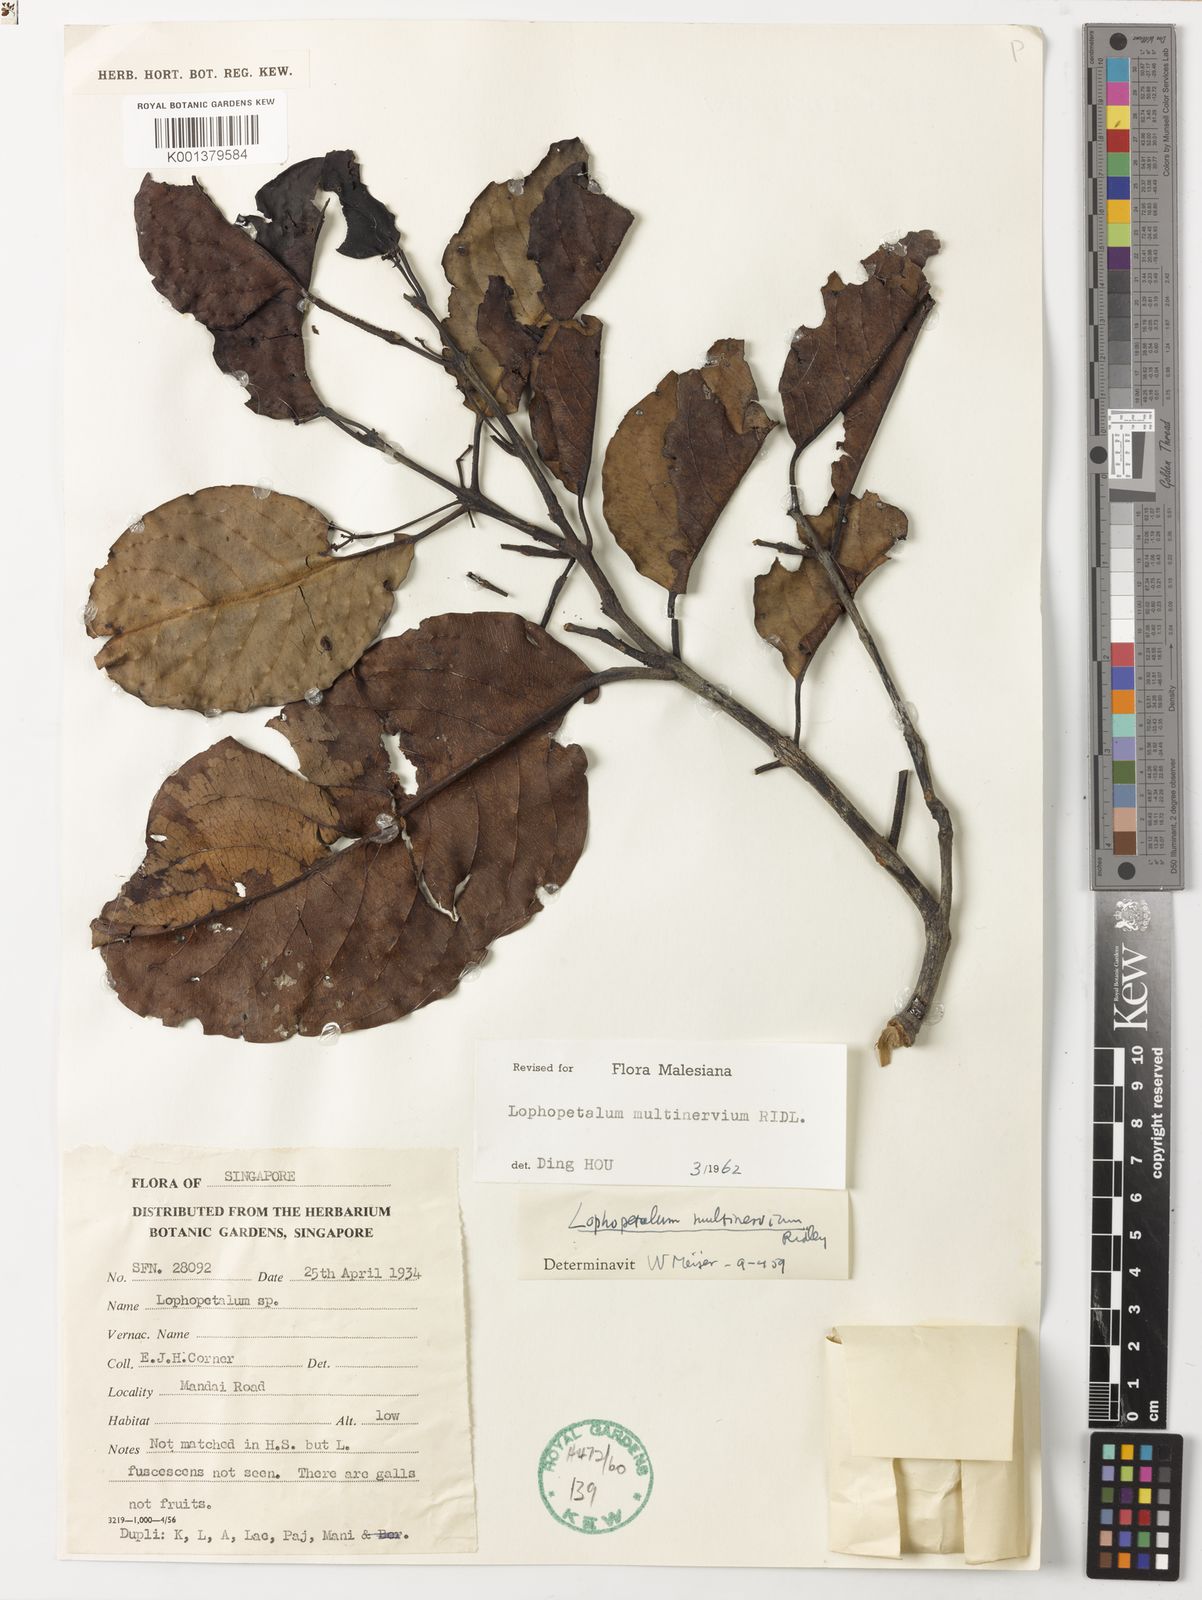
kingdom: Plantae
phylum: Tracheophyta
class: Magnoliopsida
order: Celastrales
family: Celastraceae
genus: Lophopetalum
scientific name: Lophopetalum multinervium
